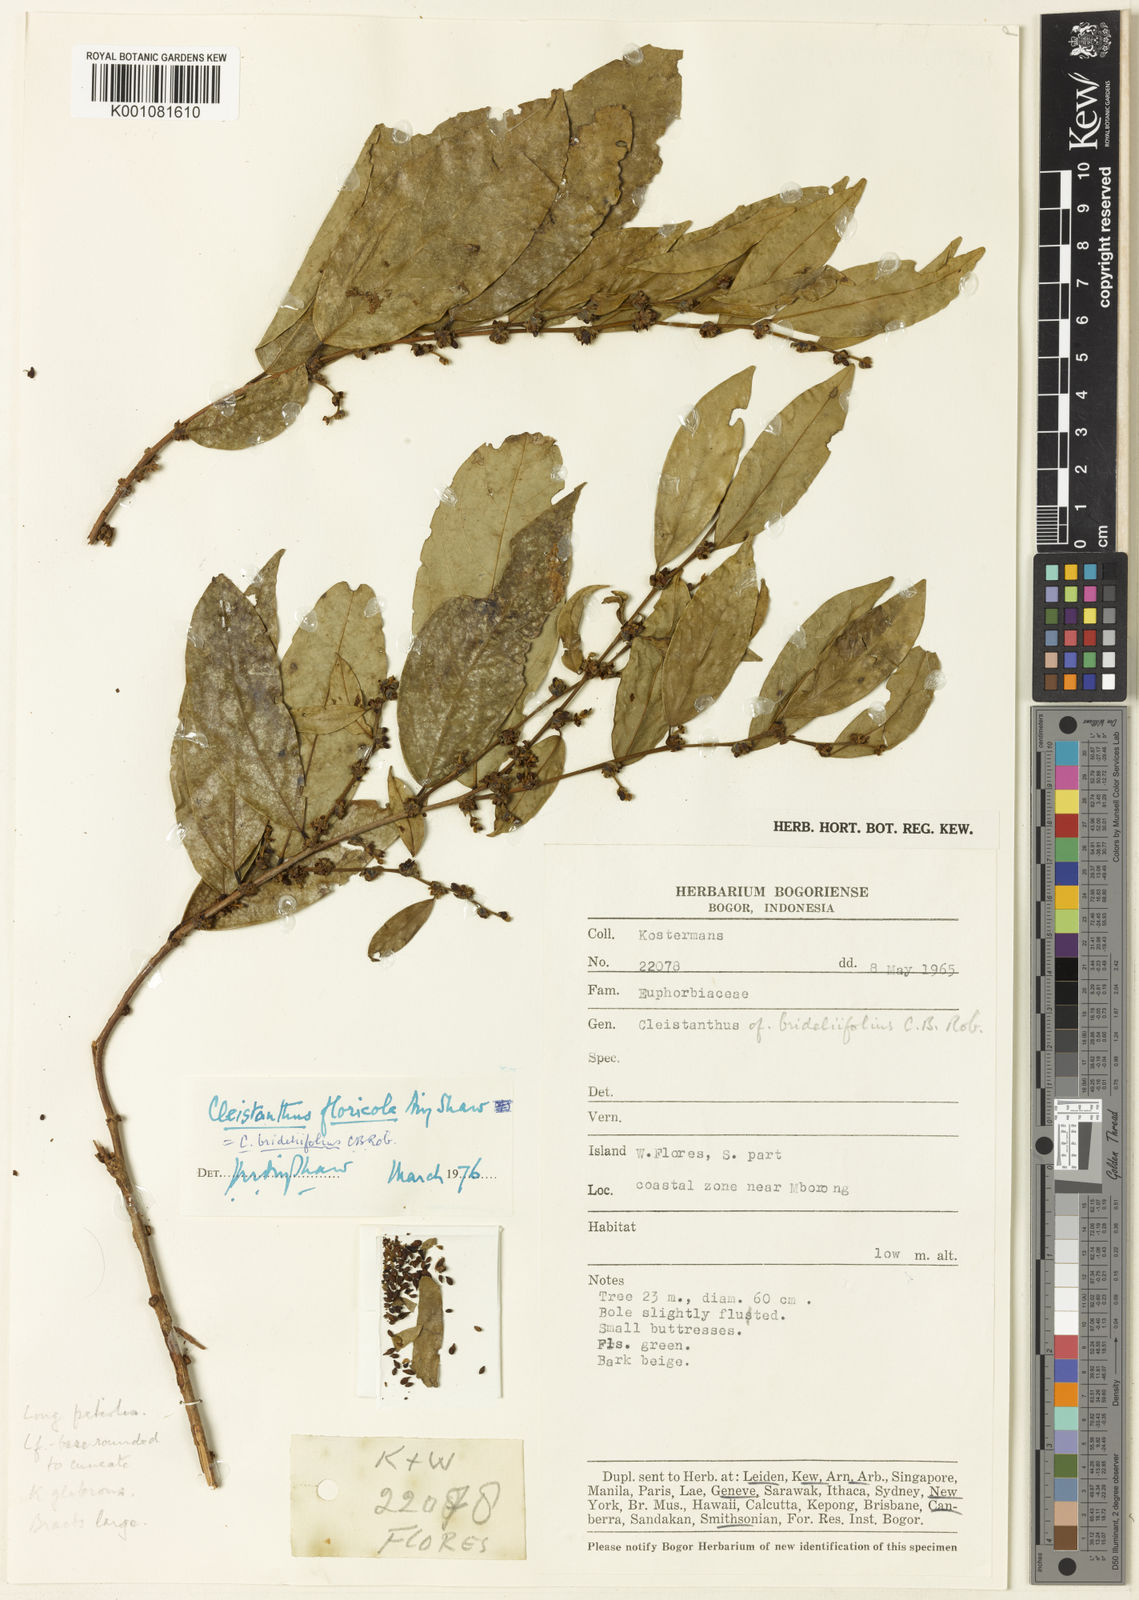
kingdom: Plantae
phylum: Tracheophyta
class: Magnoliopsida
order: Malpighiales
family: Phyllanthaceae
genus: Cleistanthus
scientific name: Cleistanthus brideliifolius
